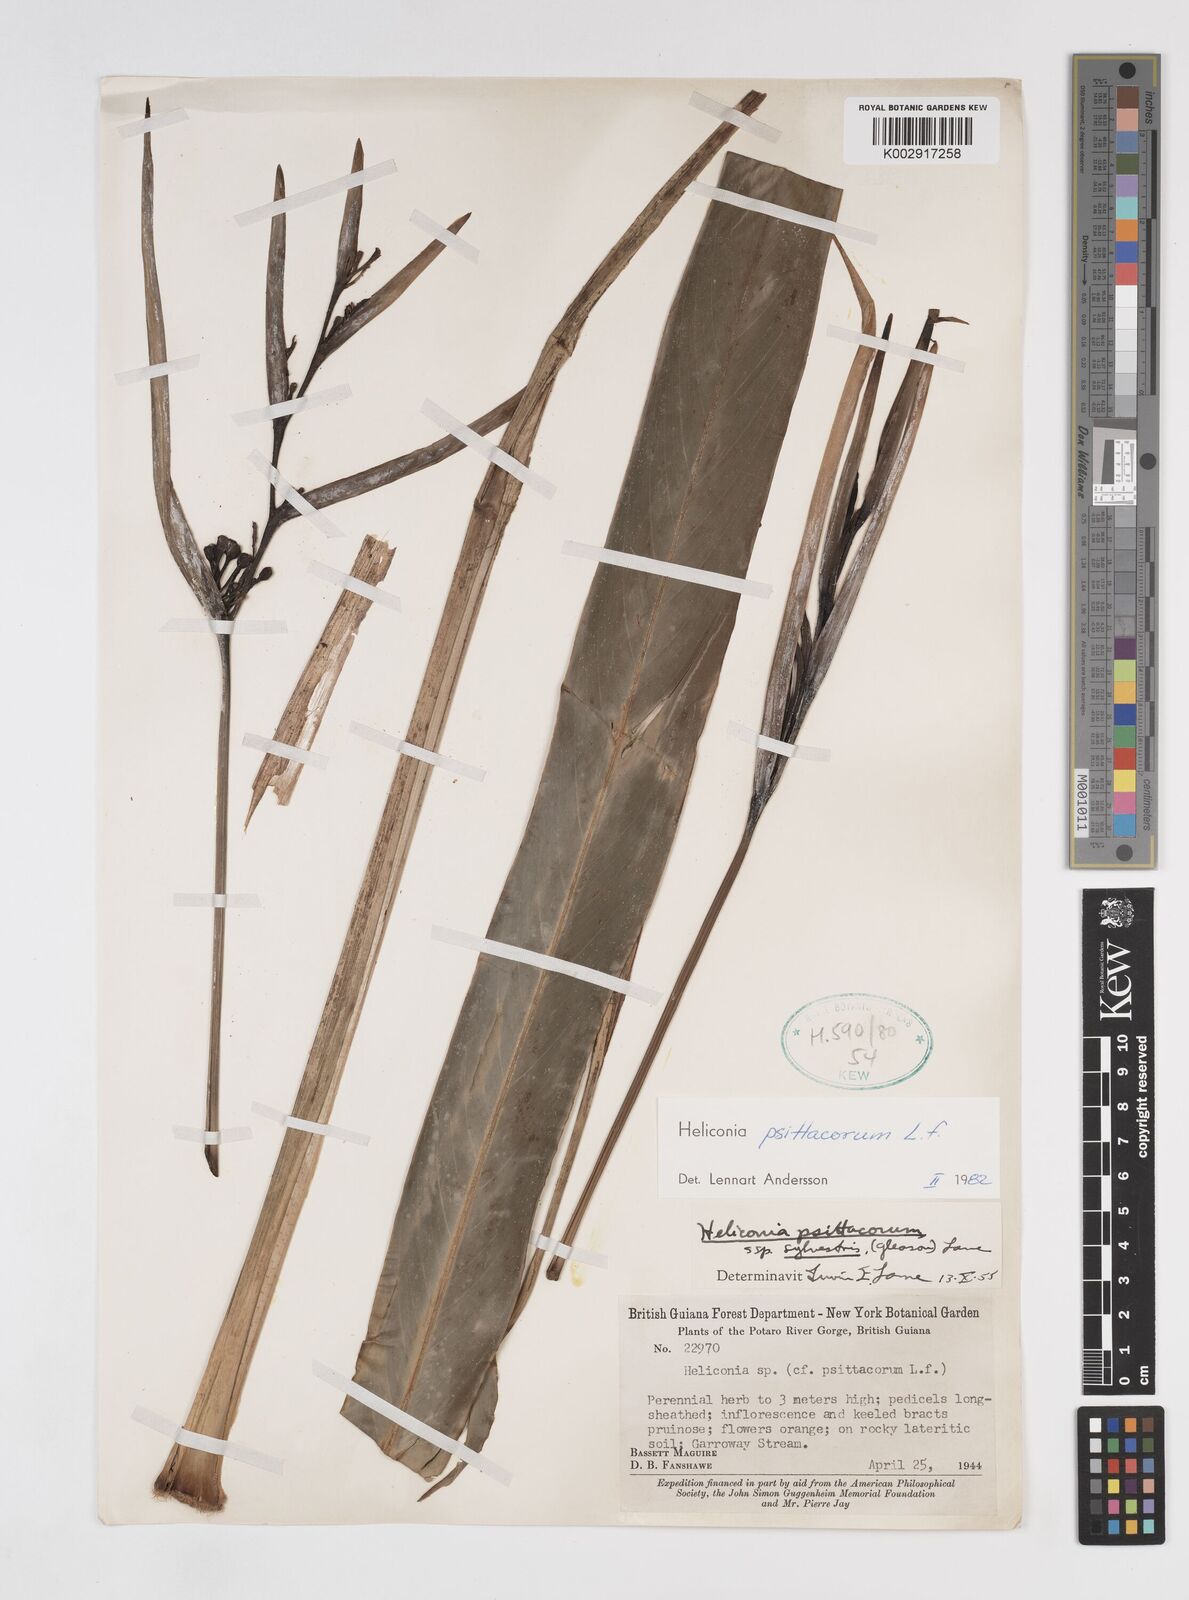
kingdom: Plantae
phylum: Tracheophyta
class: Liliopsida
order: Zingiberales
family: Heliconiaceae
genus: Heliconia
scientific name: Heliconia psittacorum
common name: Parrot's-flower
